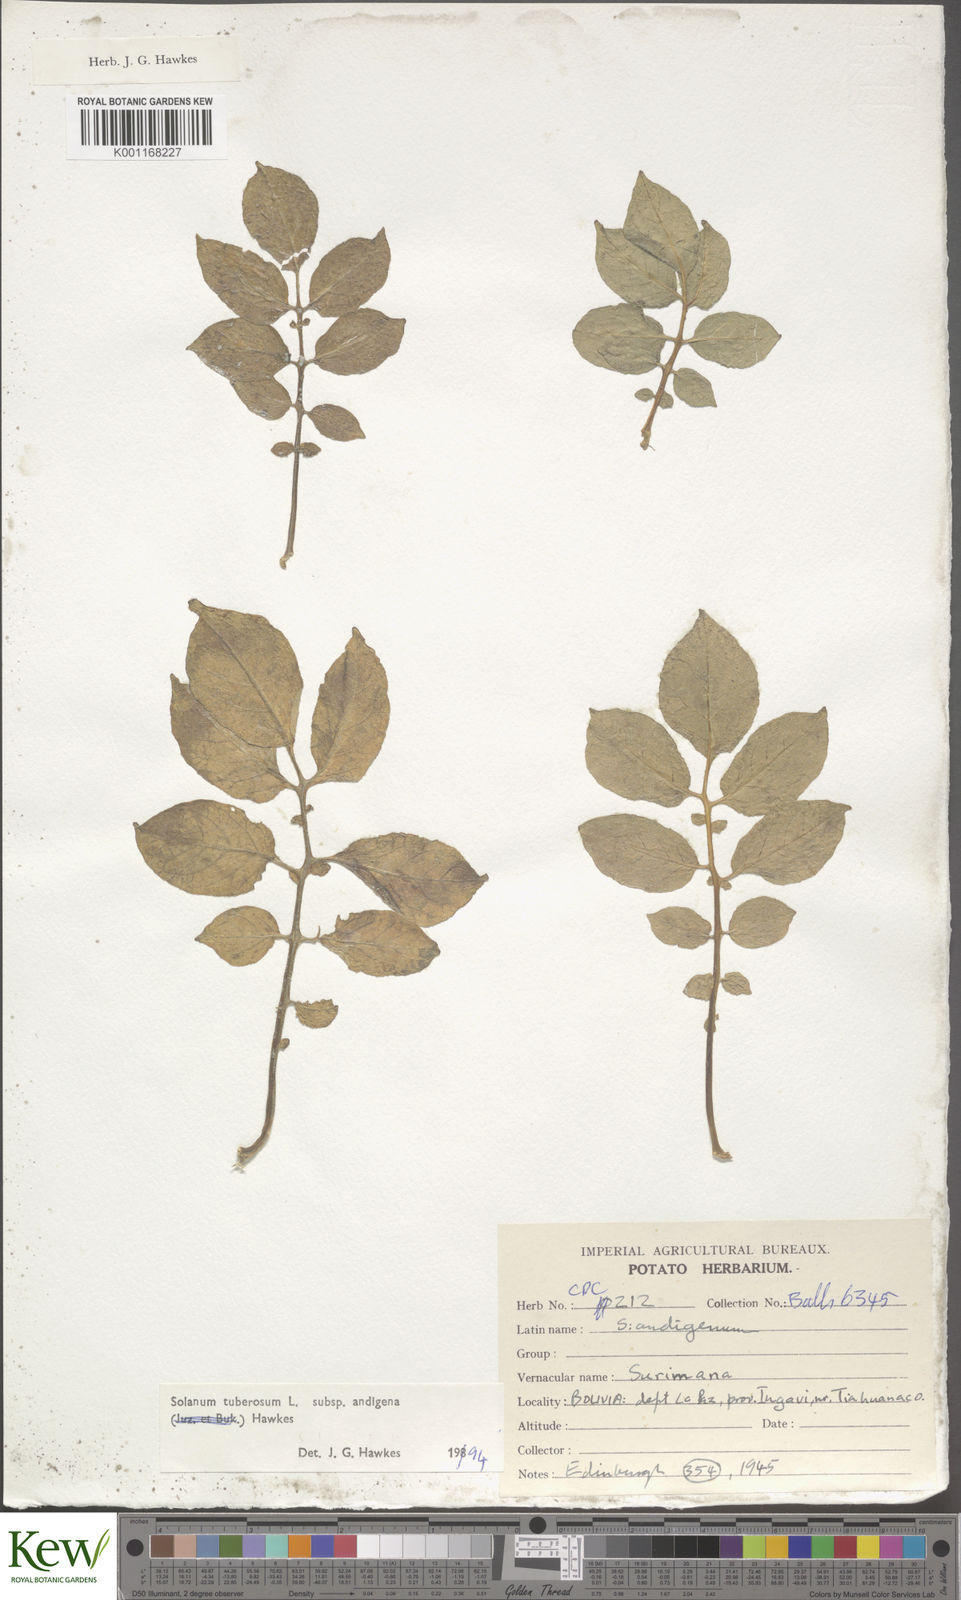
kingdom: Plantae
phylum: Tracheophyta
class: Magnoliopsida
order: Solanales
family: Solanaceae
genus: Solanum
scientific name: Solanum tuberosum
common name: Potato
